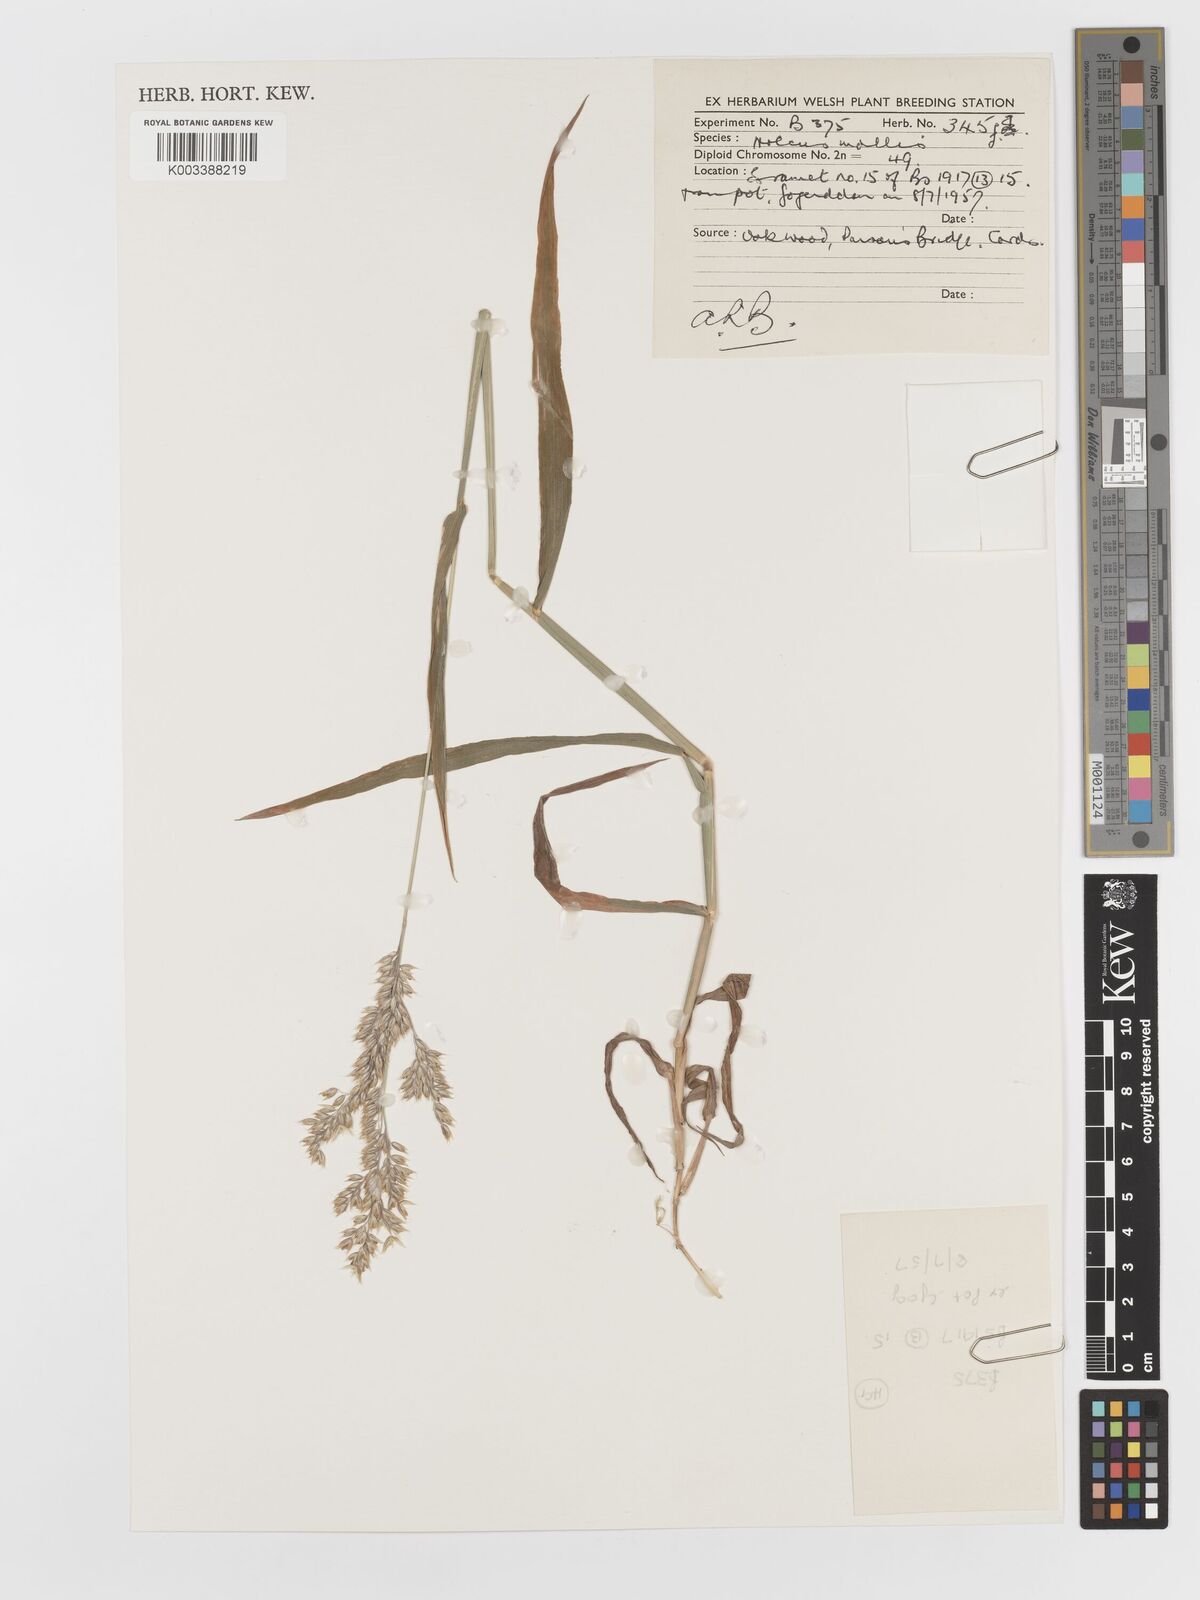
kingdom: Plantae
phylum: Tracheophyta
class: Liliopsida
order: Poales
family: Poaceae
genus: Holcus
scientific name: Holcus mollis
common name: Creeping velvetgrass
